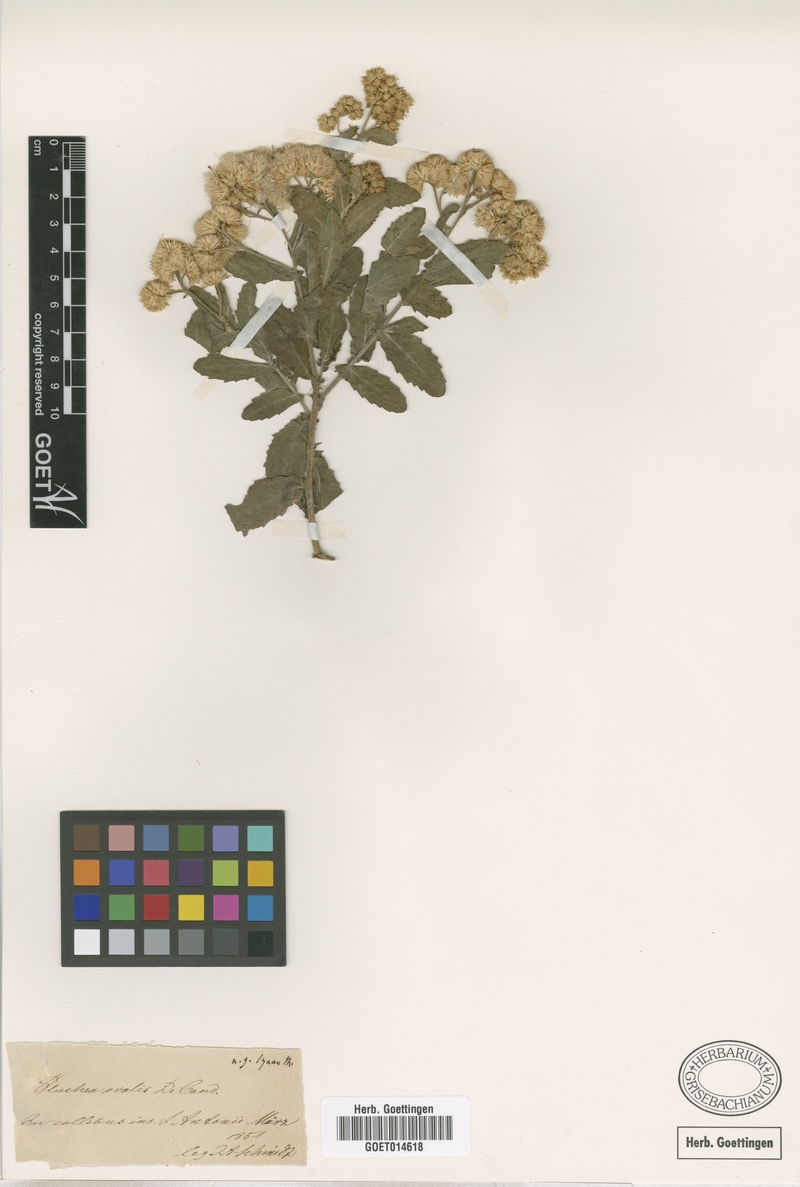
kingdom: Plantae
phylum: Tracheophyta
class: Magnoliopsida
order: Asterales
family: Asteraceae
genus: Pluchea
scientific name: Pluchea ovalis
